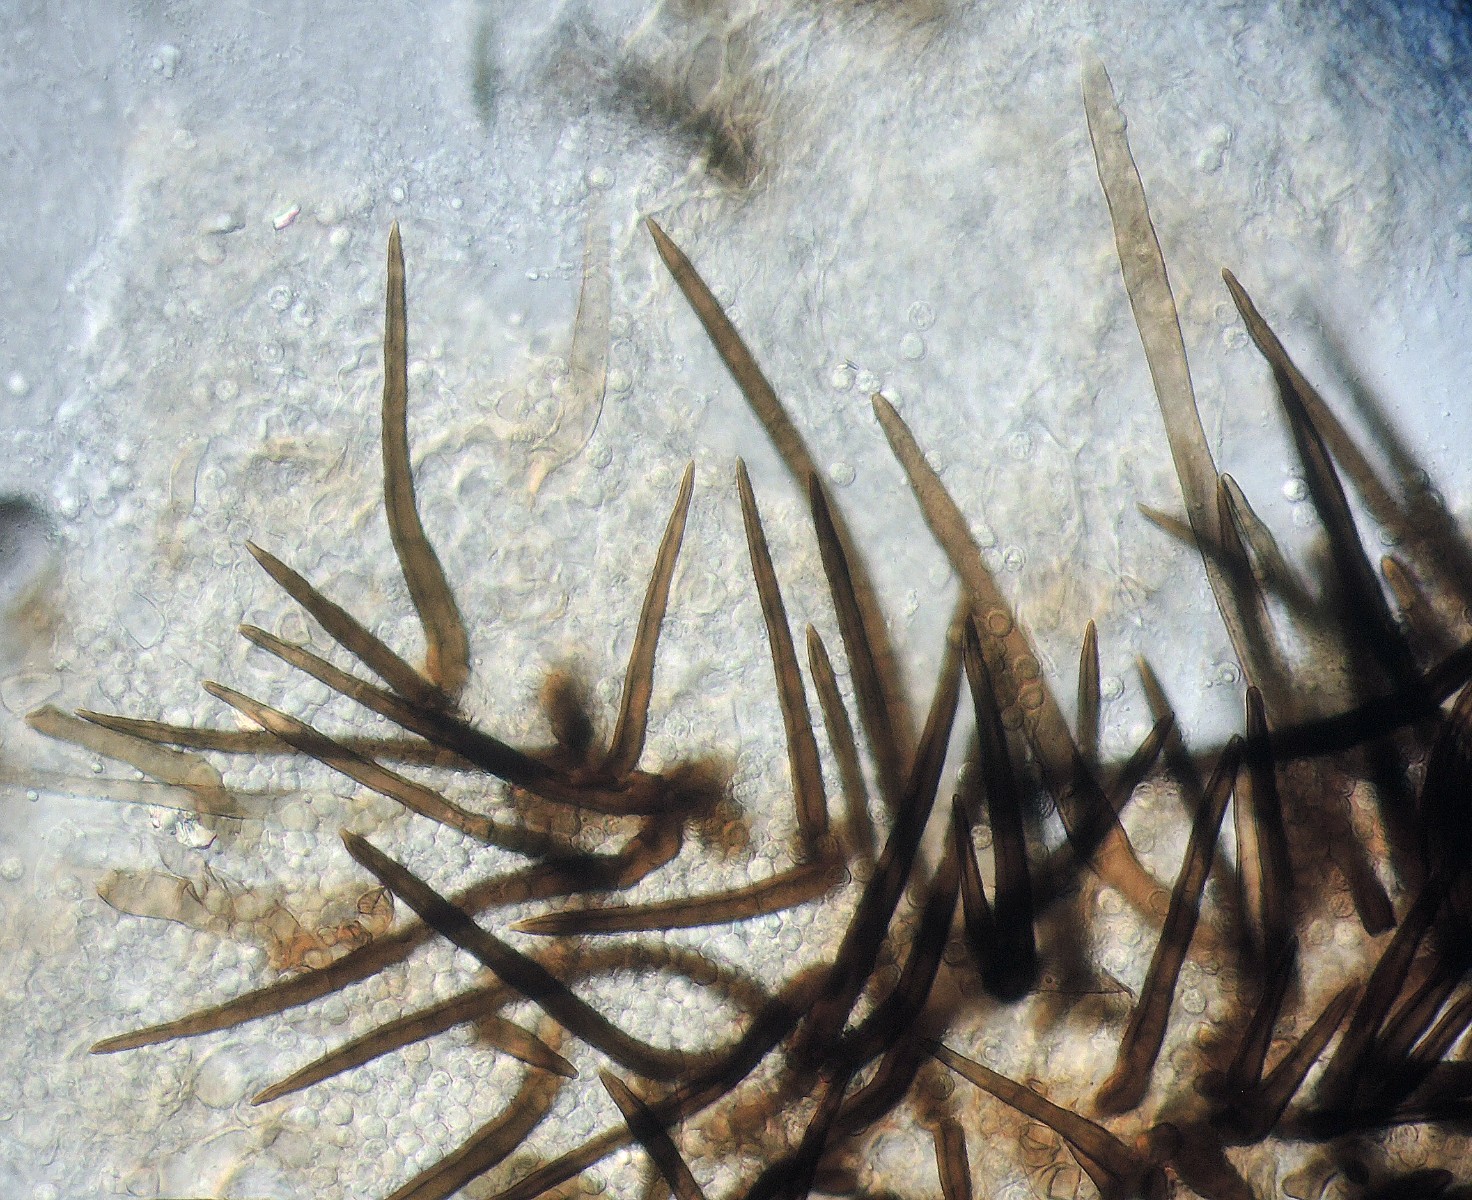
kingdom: Fungi
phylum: Ascomycota
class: Sordariomycetes
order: Sordariales
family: Helminthosphaeriaceae
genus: Helminthosphaeria
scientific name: Helminthosphaeria
